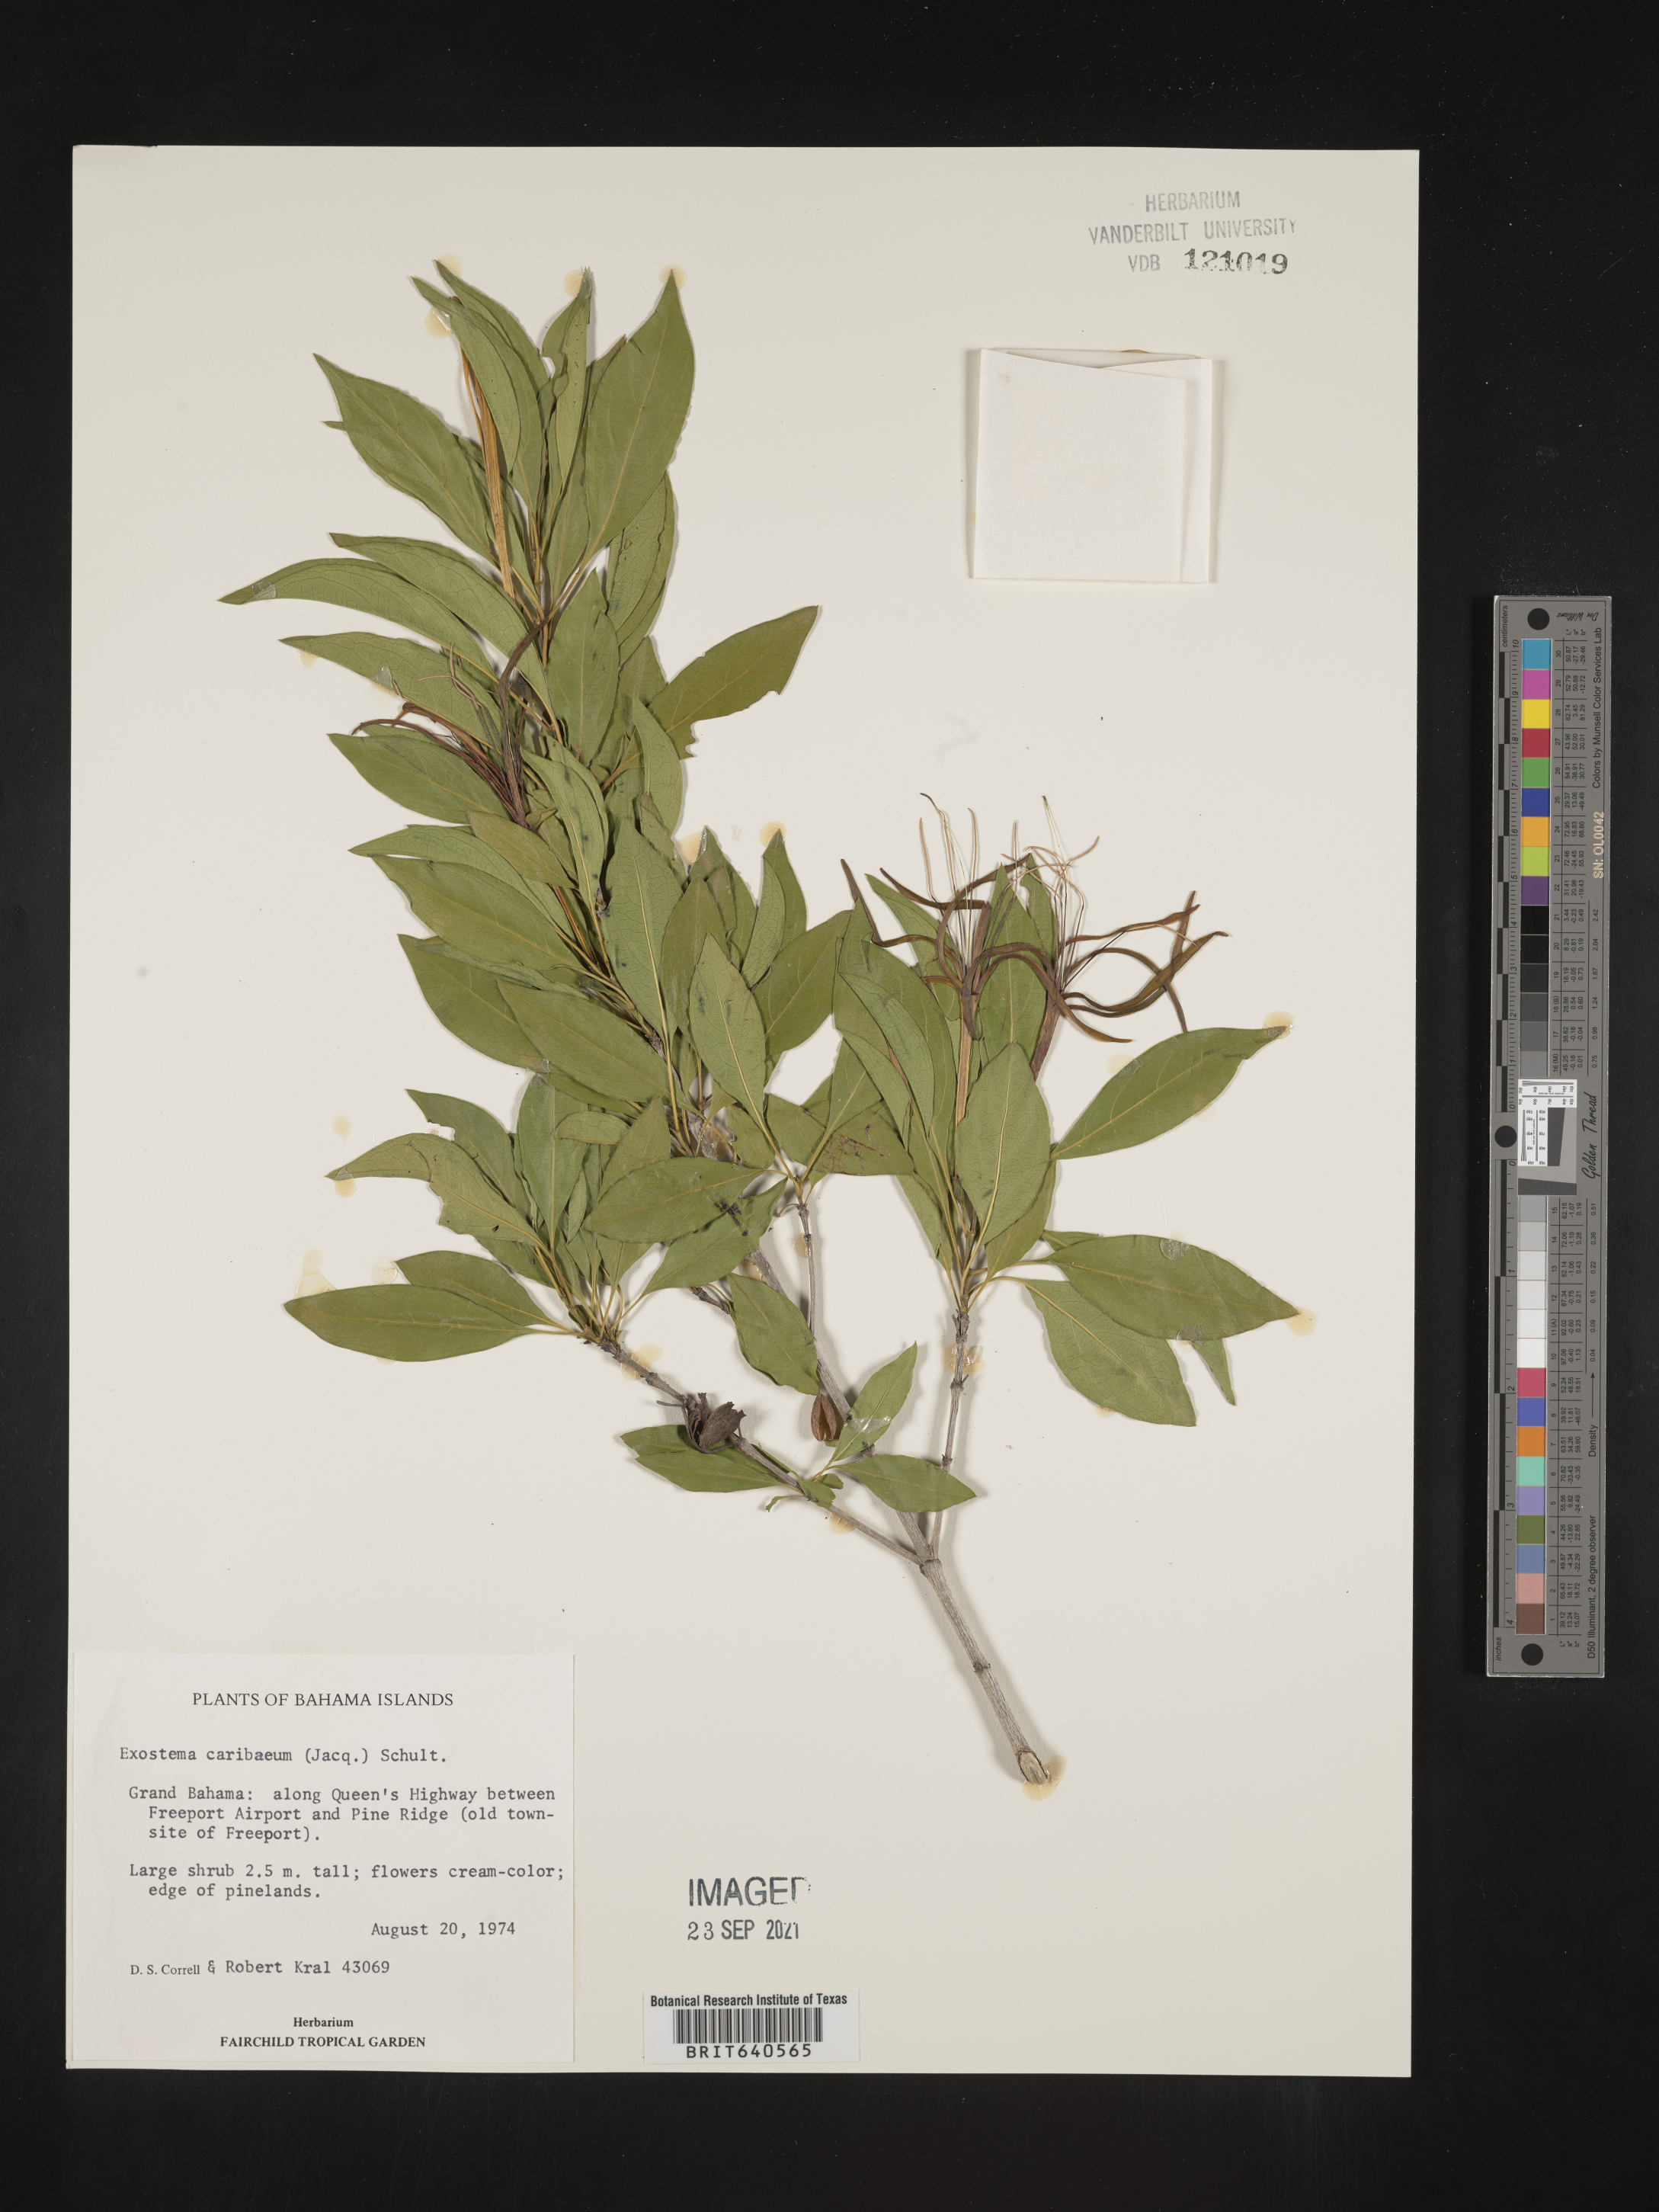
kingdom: Plantae
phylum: Tracheophyta
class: Magnoliopsida
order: Gentianales
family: Rubiaceae
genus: Exostema
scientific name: Exostema
